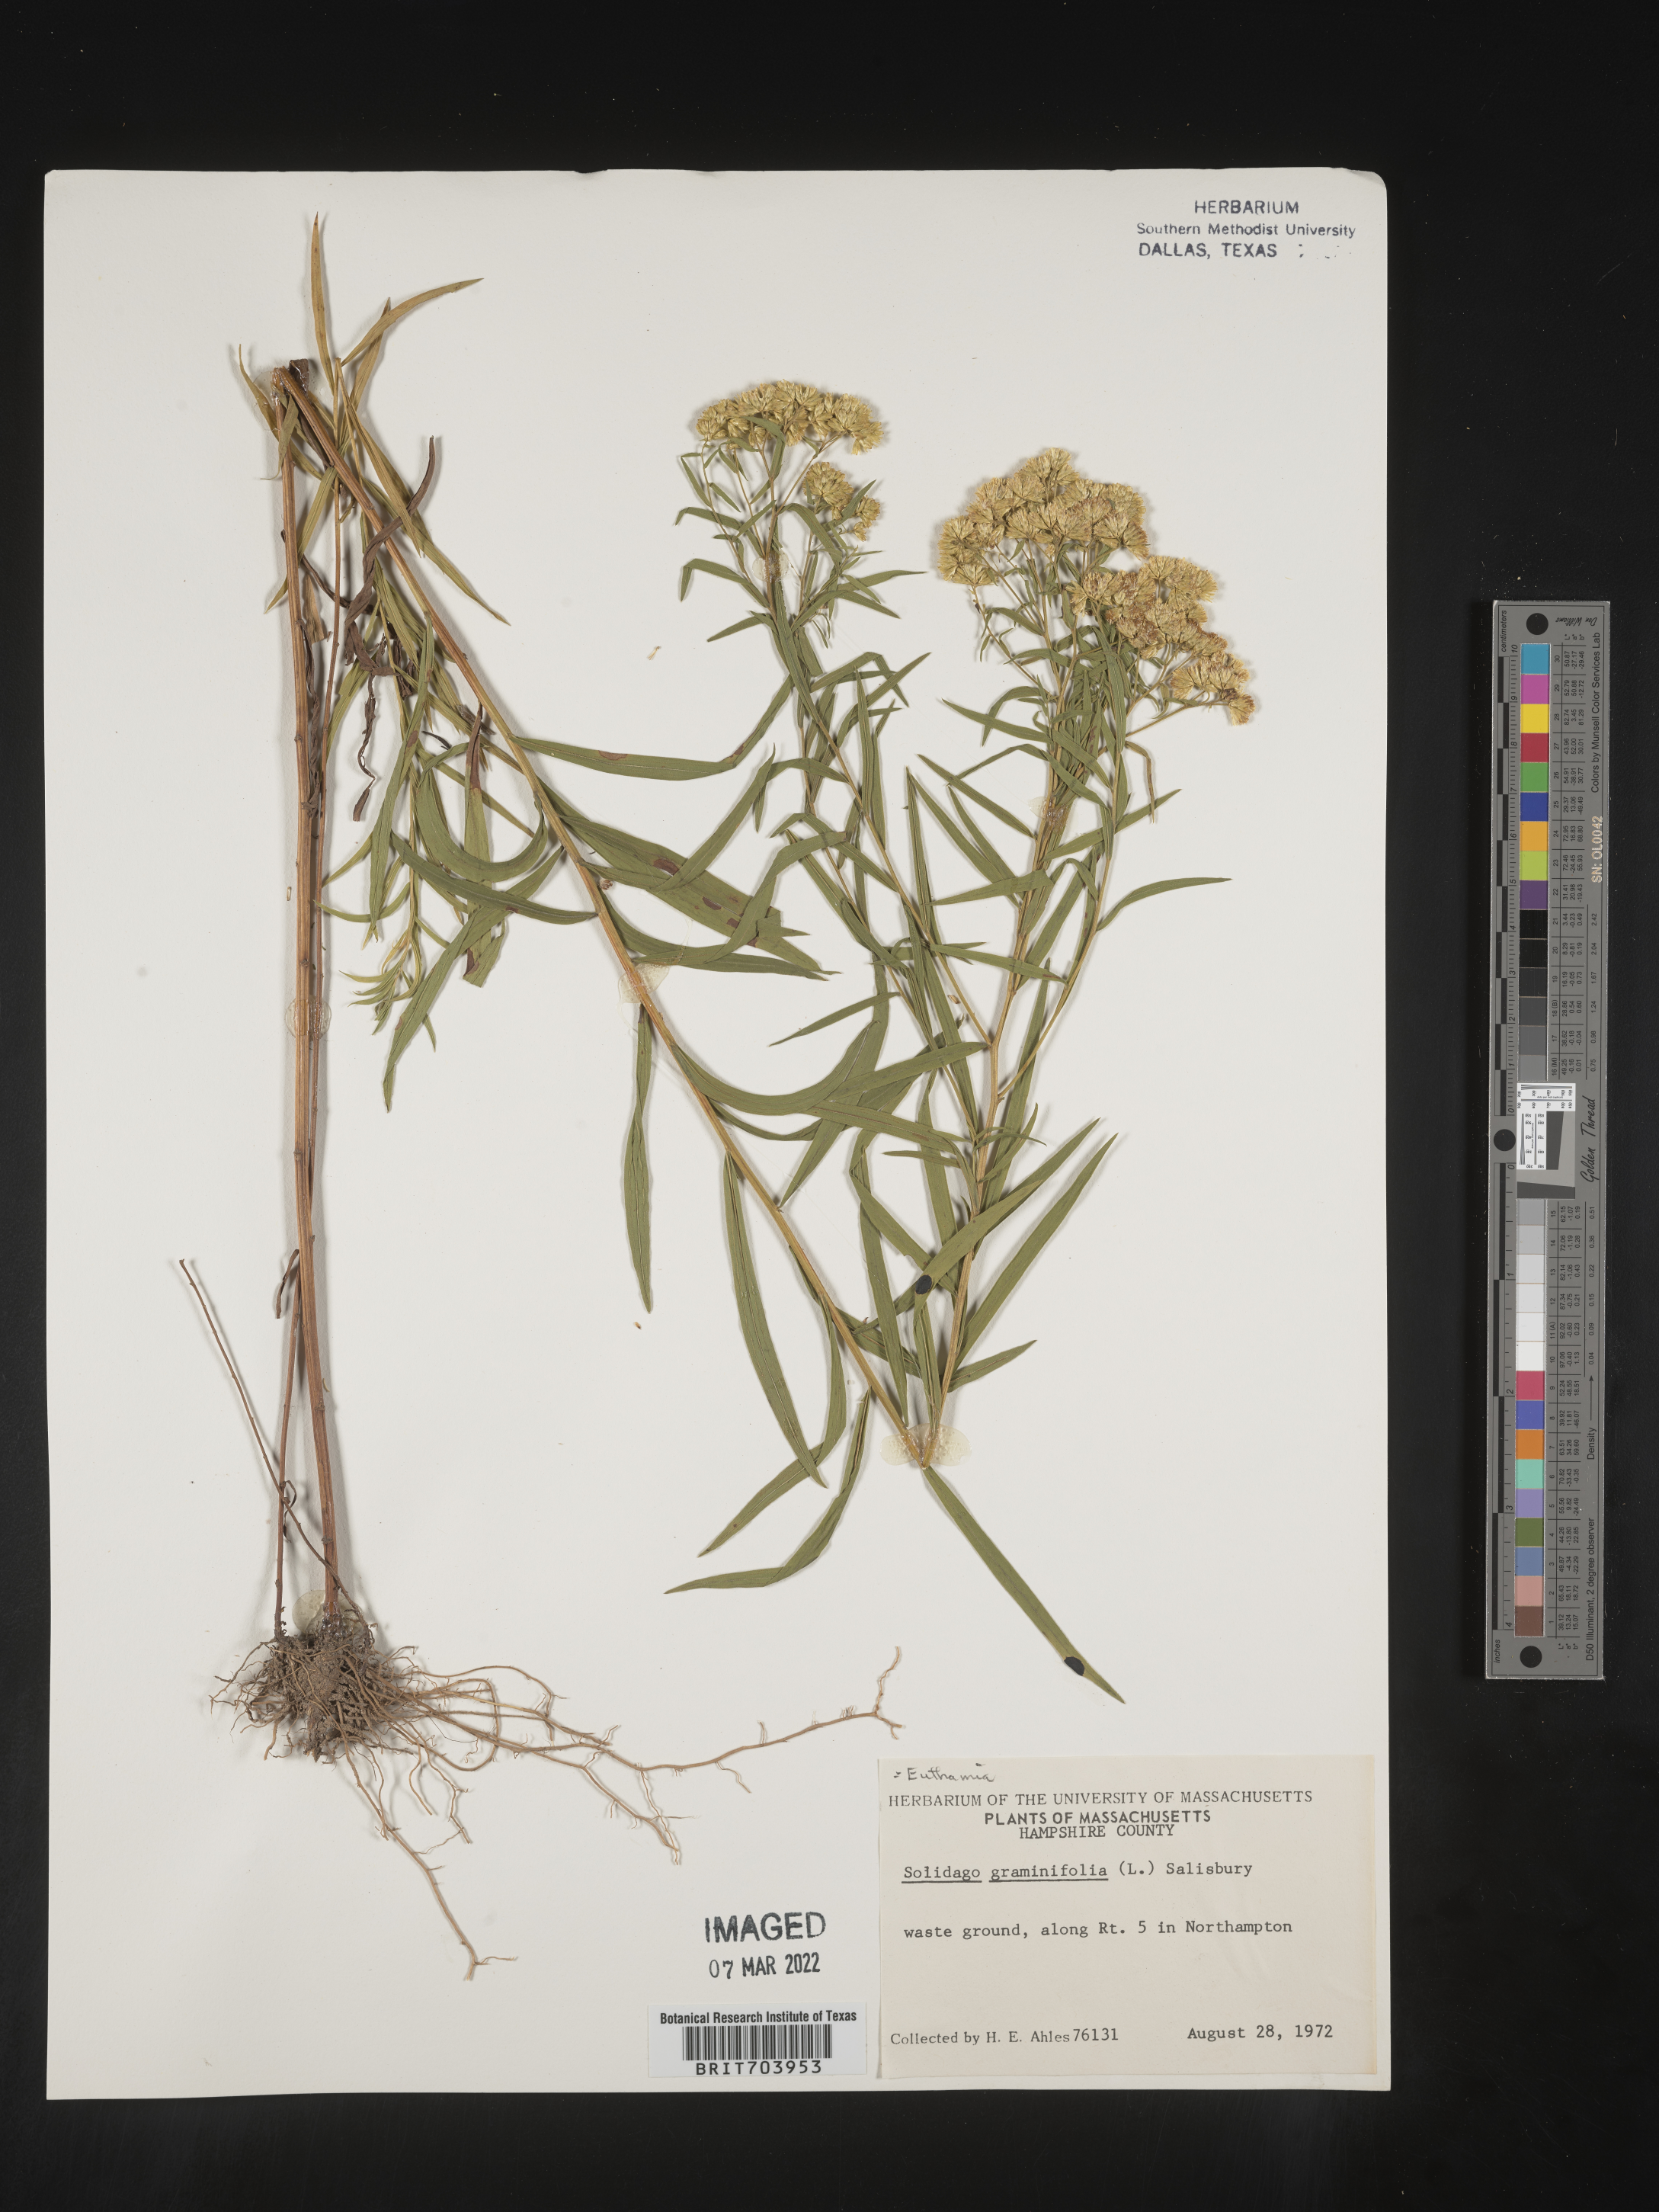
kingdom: Plantae
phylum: Tracheophyta
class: Magnoliopsida
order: Asterales
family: Asteraceae
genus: Euthamia
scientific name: Euthamia graminifolia
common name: Common goldentop
